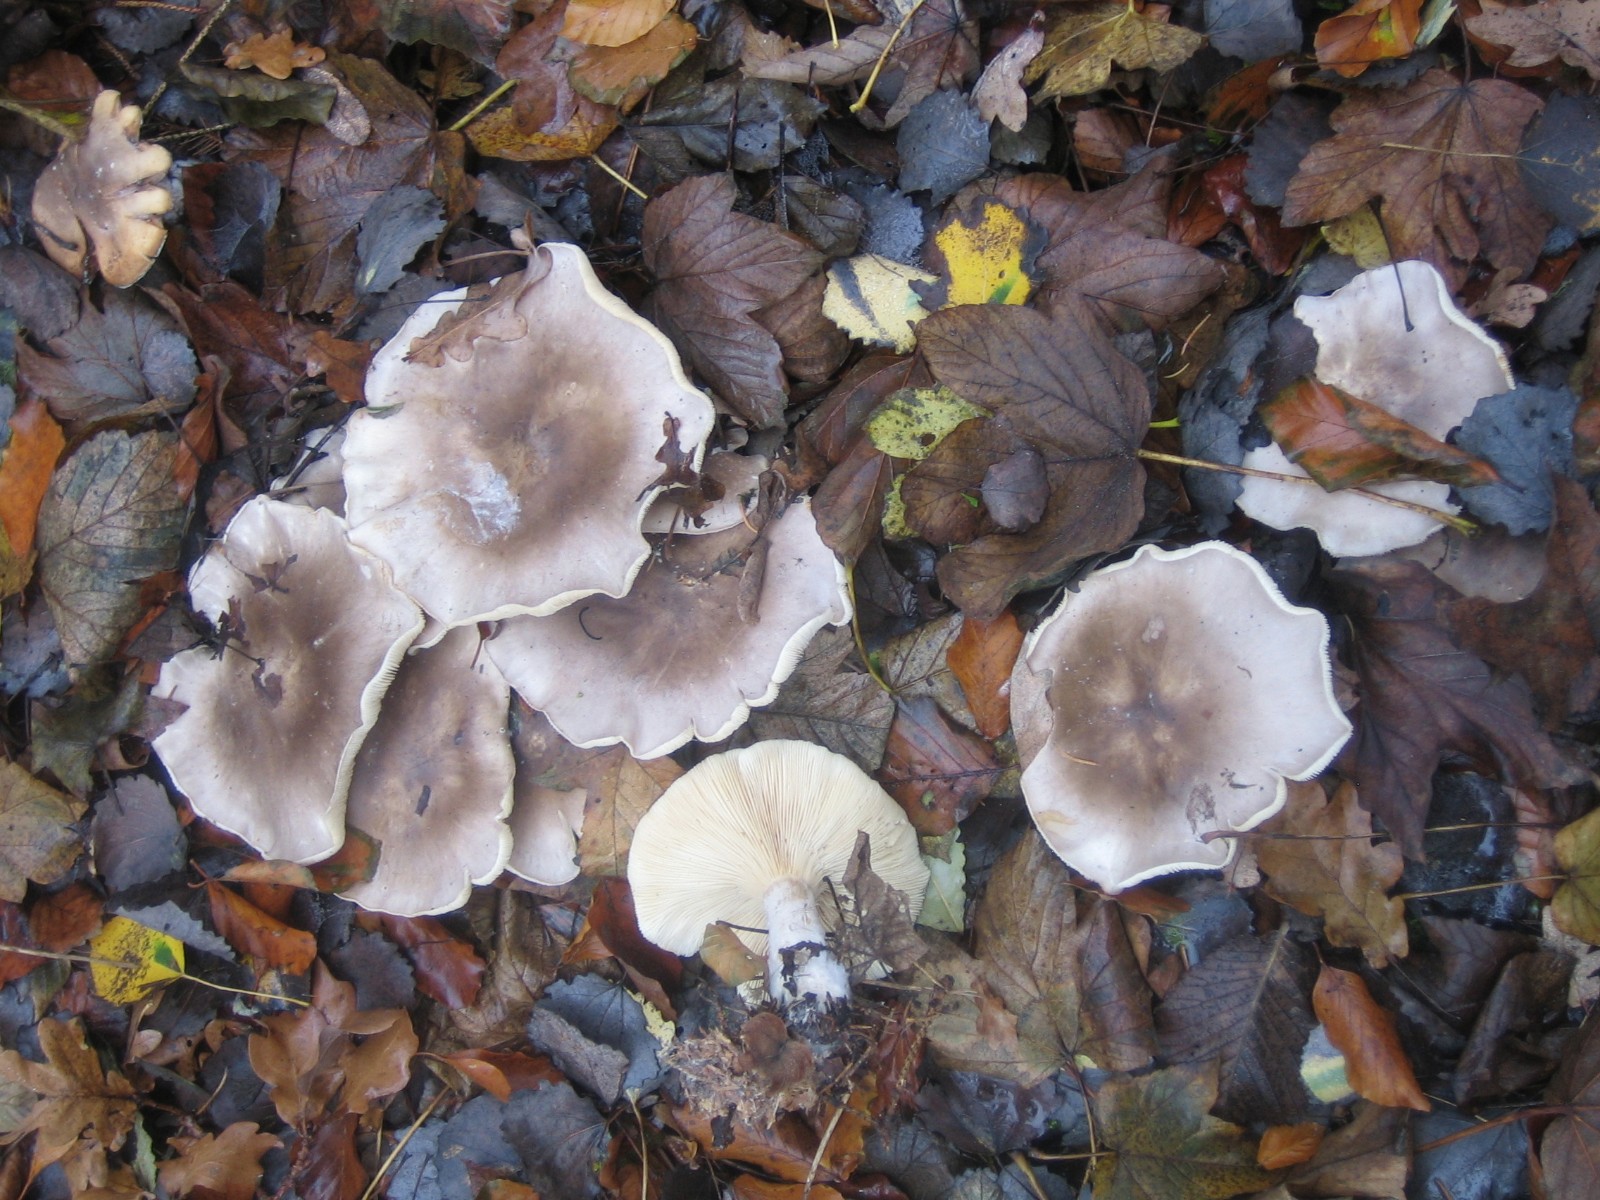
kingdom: Fungi
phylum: Basidiomycota
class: Agaricomycetes
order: Agaricales
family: Tricholomataceae
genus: Clitocybe
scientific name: Clitocybe nebularis
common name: tåge-tragthat
